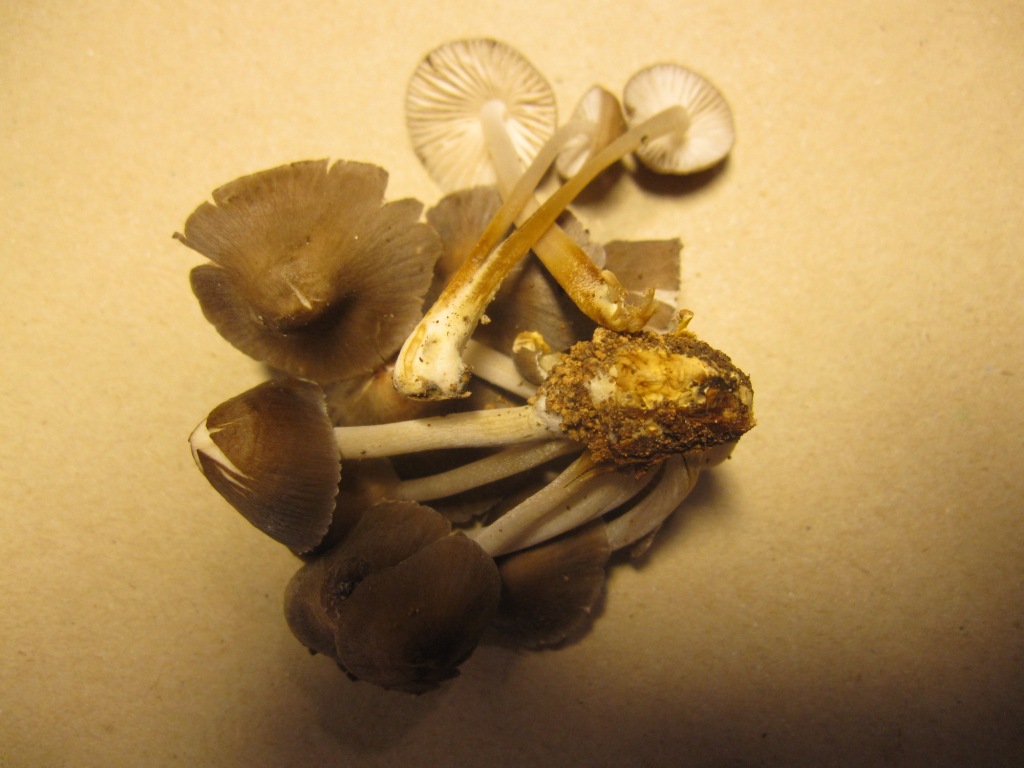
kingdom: Fungi
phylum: Basidiomycota
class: Agaricomycetes
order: Agaricales
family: Mycenaceae
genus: Mycena
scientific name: Mycena inclinata
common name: nikkende huesvamp
